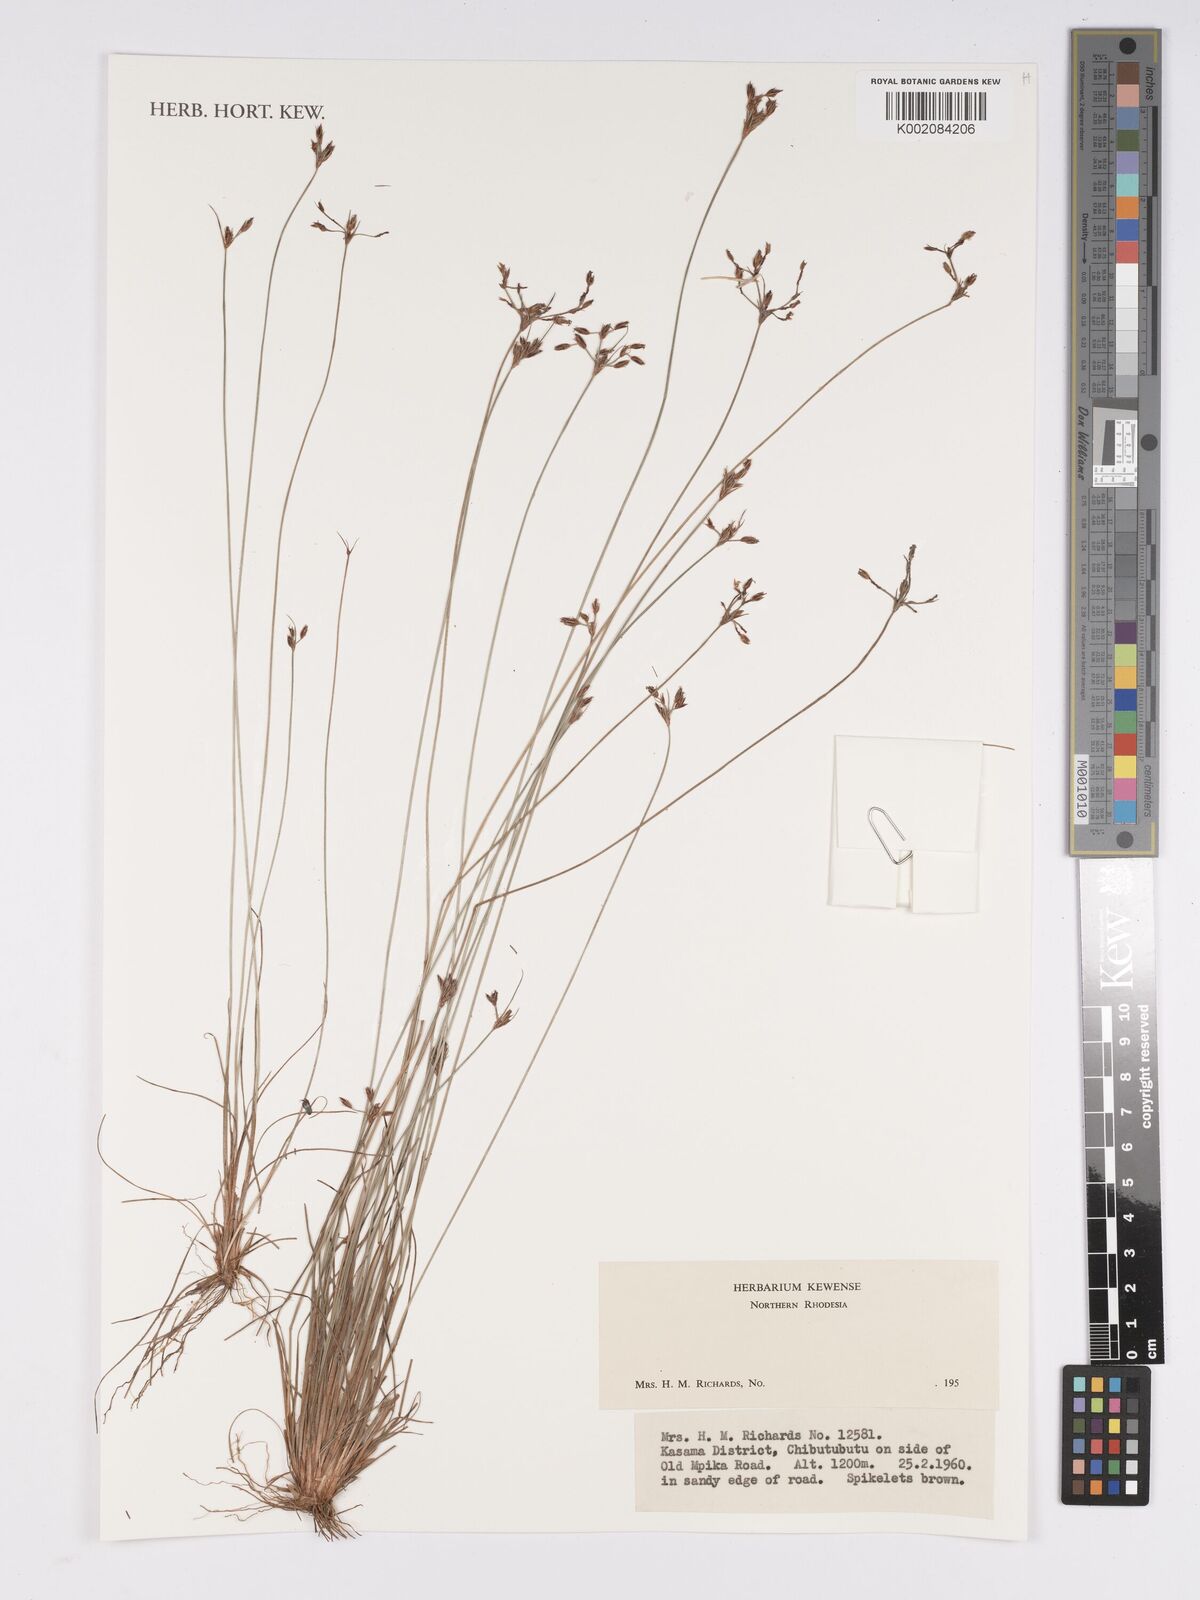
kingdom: Plantae
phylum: Tracheophyta
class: Liliopsida
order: Poales
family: Cyperaceae
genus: Bulbostylis
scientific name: Bulbostylis
